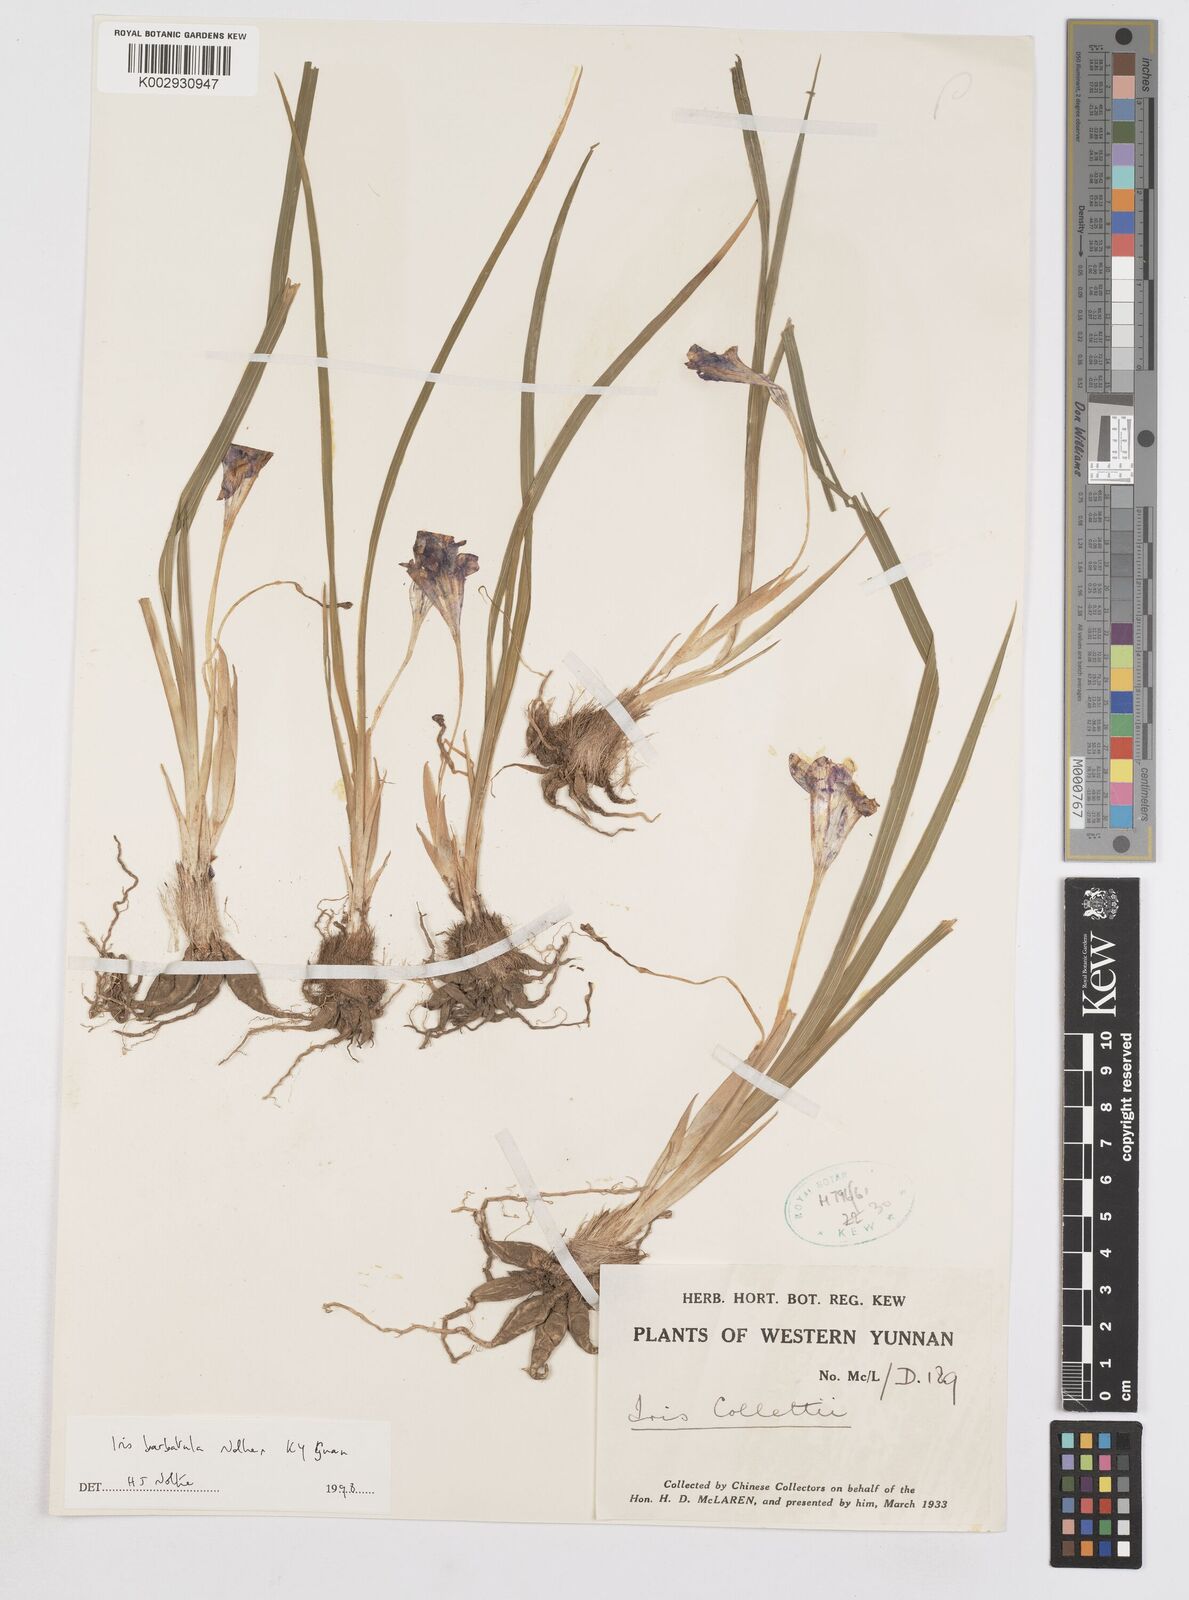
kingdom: Plantae
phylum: Tracheophyta
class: Liliopsida
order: Asparagales
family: Iridaceae
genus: Iris
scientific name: Iris barbatula
